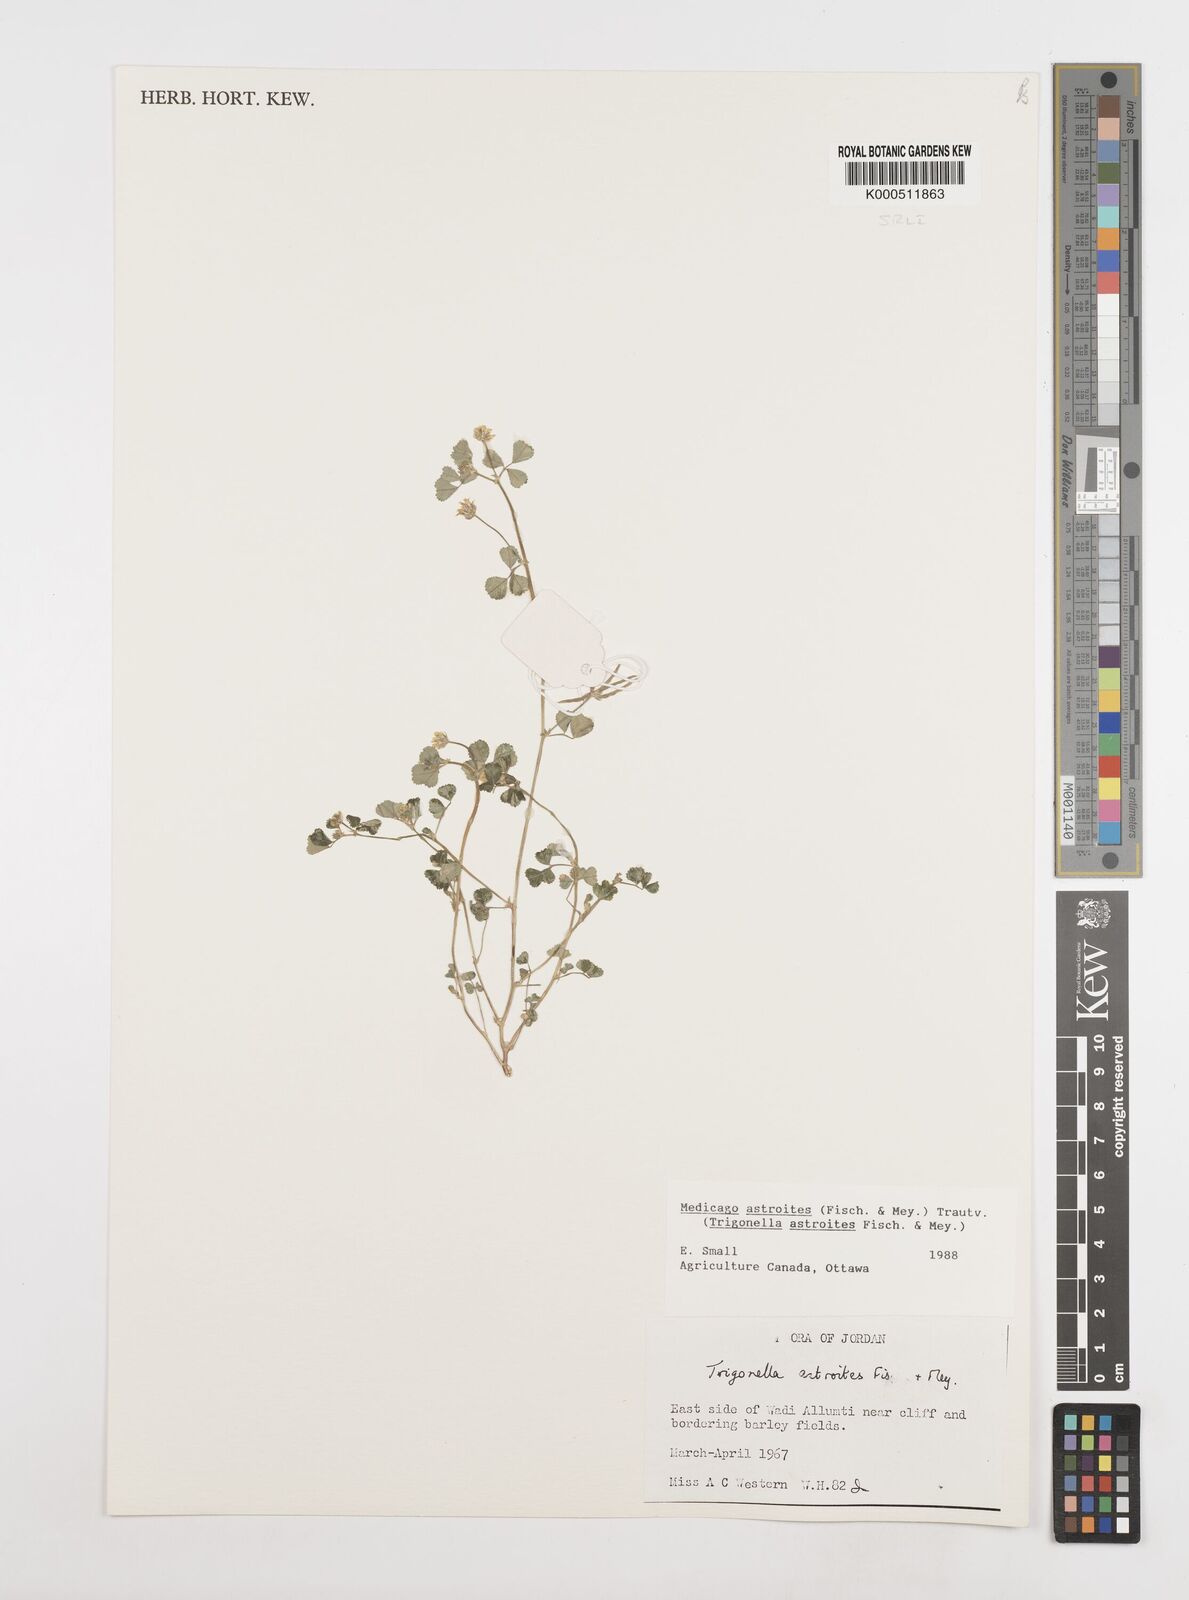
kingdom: Plantae
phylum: Tracheophyta
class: Magnoliopsida
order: Fabales
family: Fabaceae
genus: Medicago
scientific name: Medicago astroites
